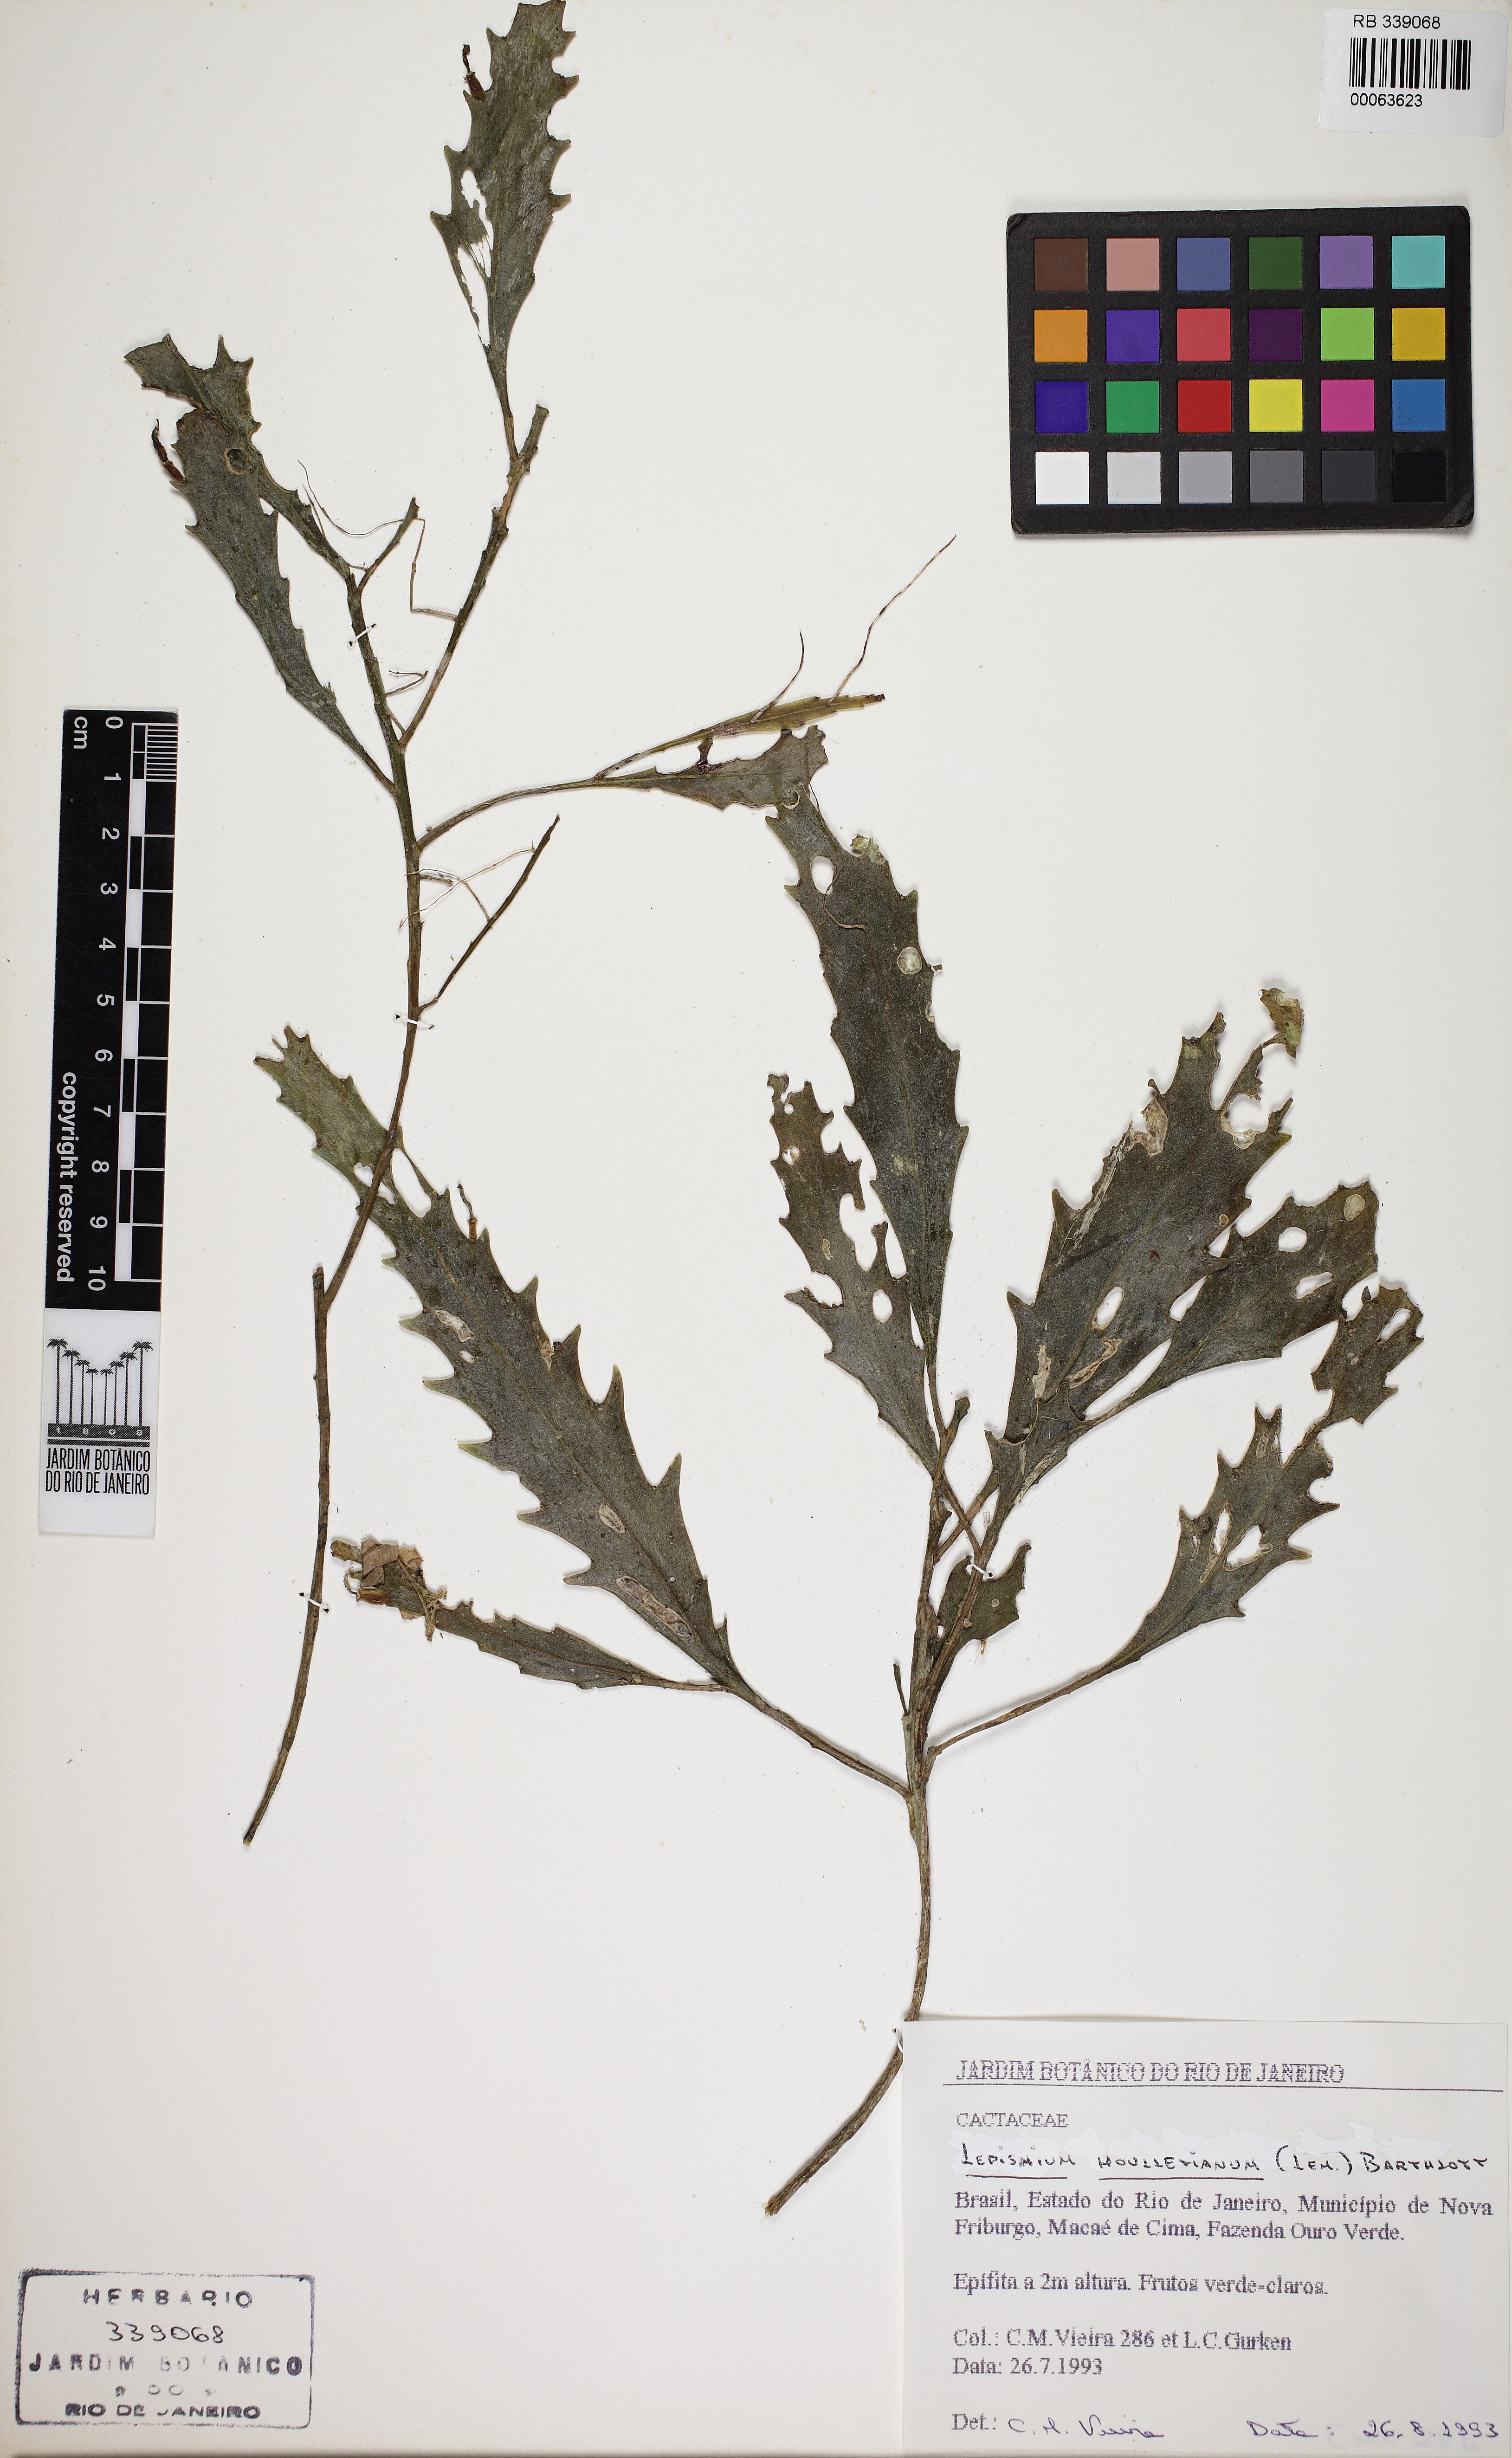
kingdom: Plantae
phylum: Tracheophyta
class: Magnoliopsida
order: Caryophyllales
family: Cactaceae
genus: Lepismium
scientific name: Lepismium houlletianum
